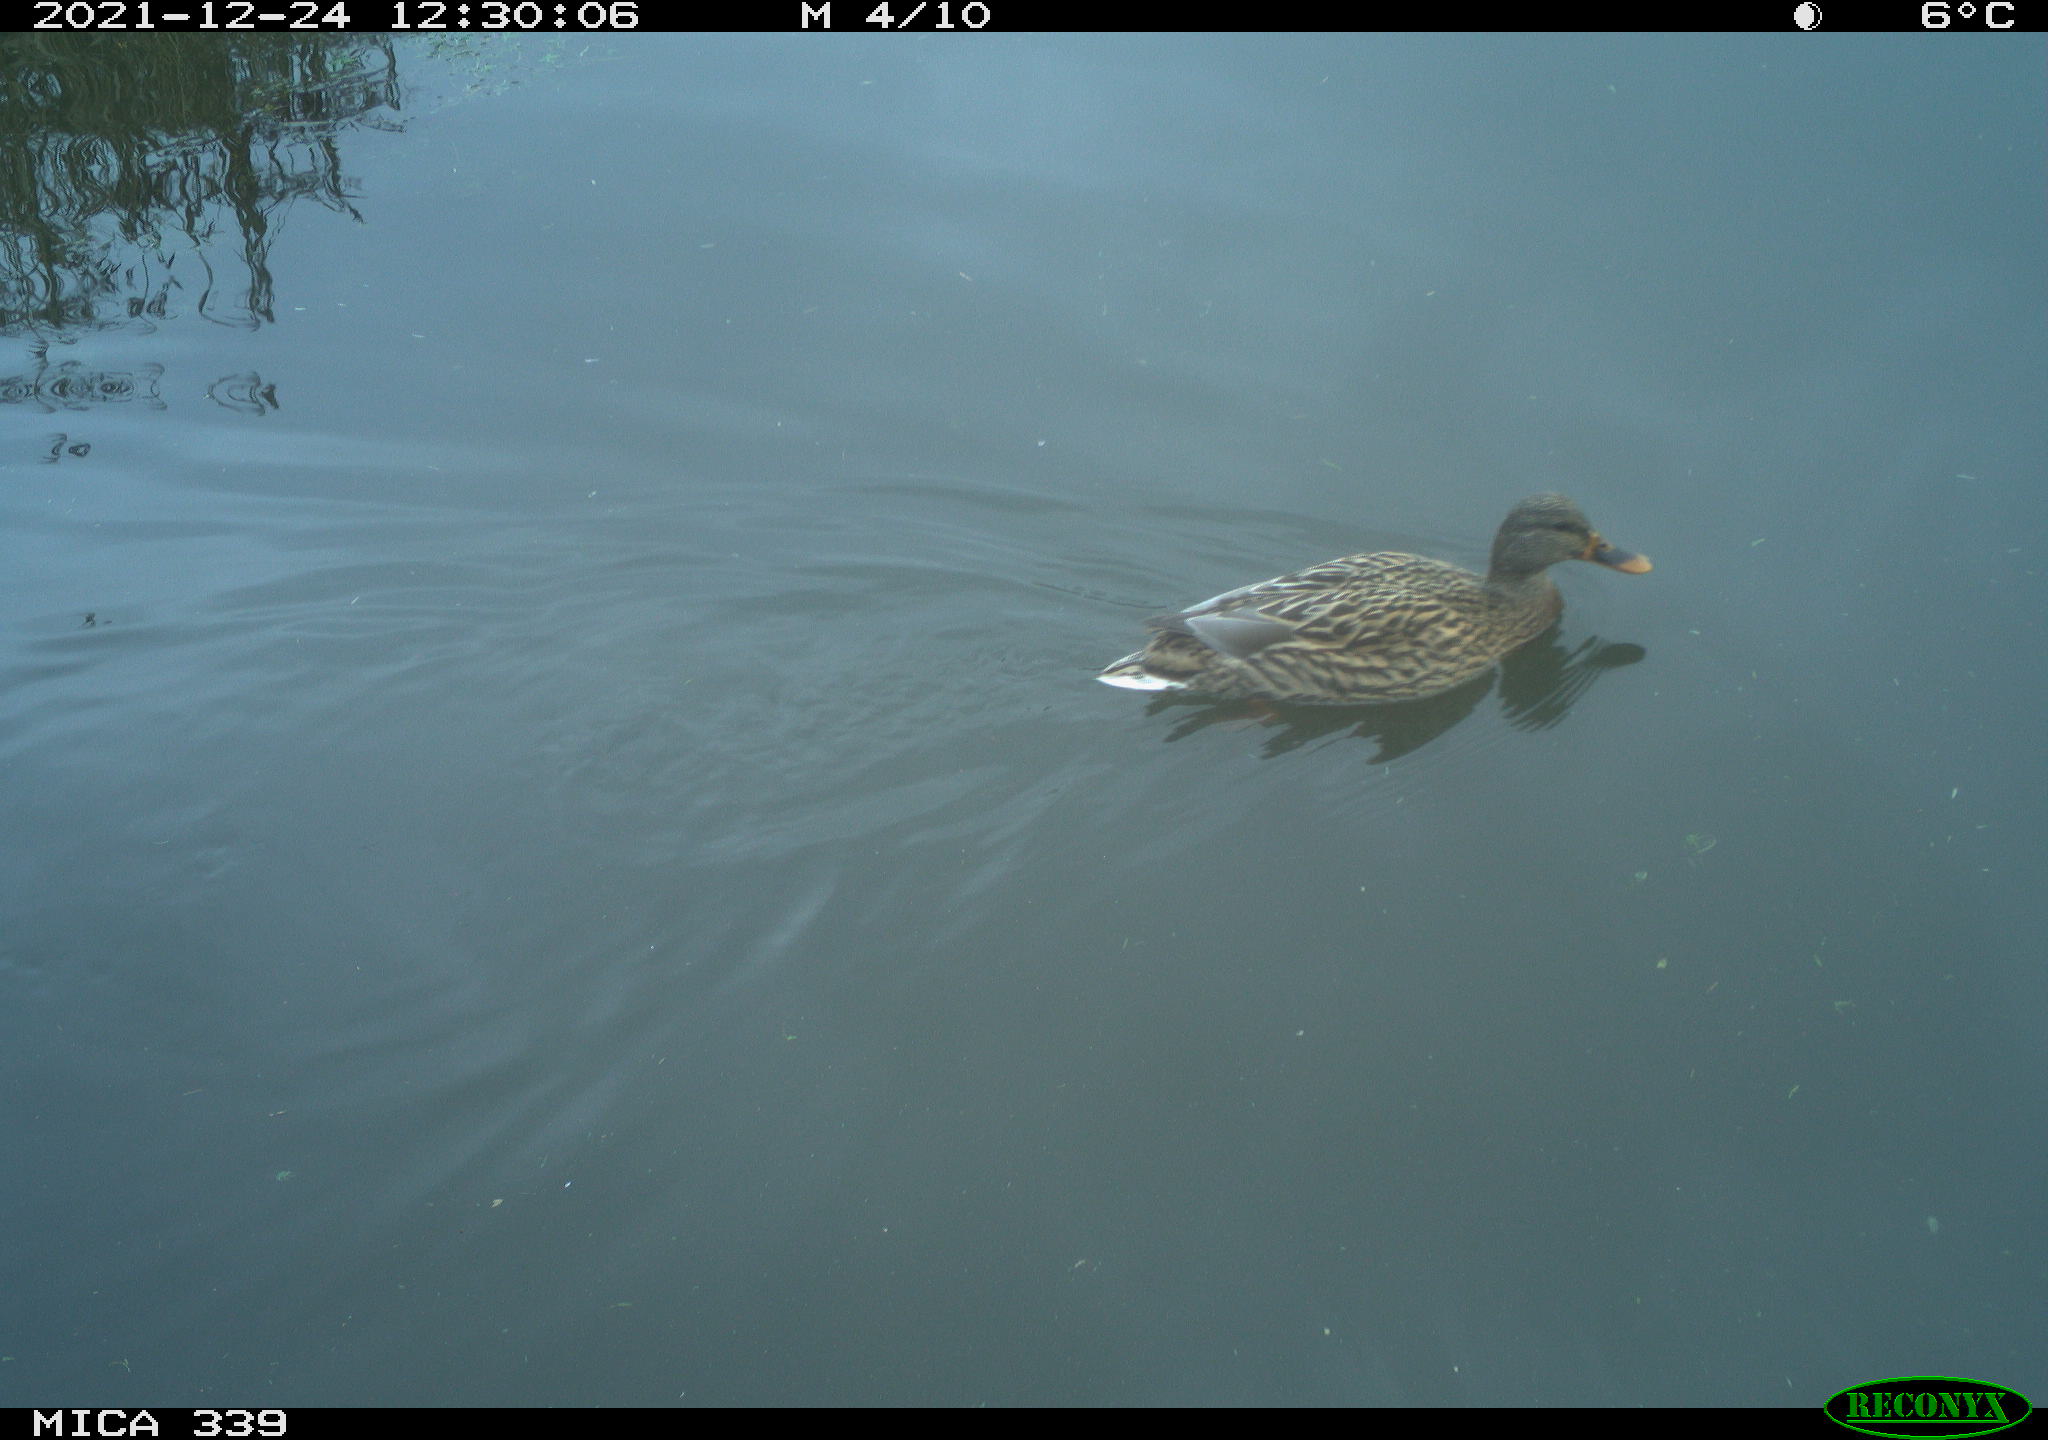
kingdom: Animalia
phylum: Chordata
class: Aves
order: Anseriformes
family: Anatidae
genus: Anas
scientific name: Anas platyrhynchos
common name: Mallard
